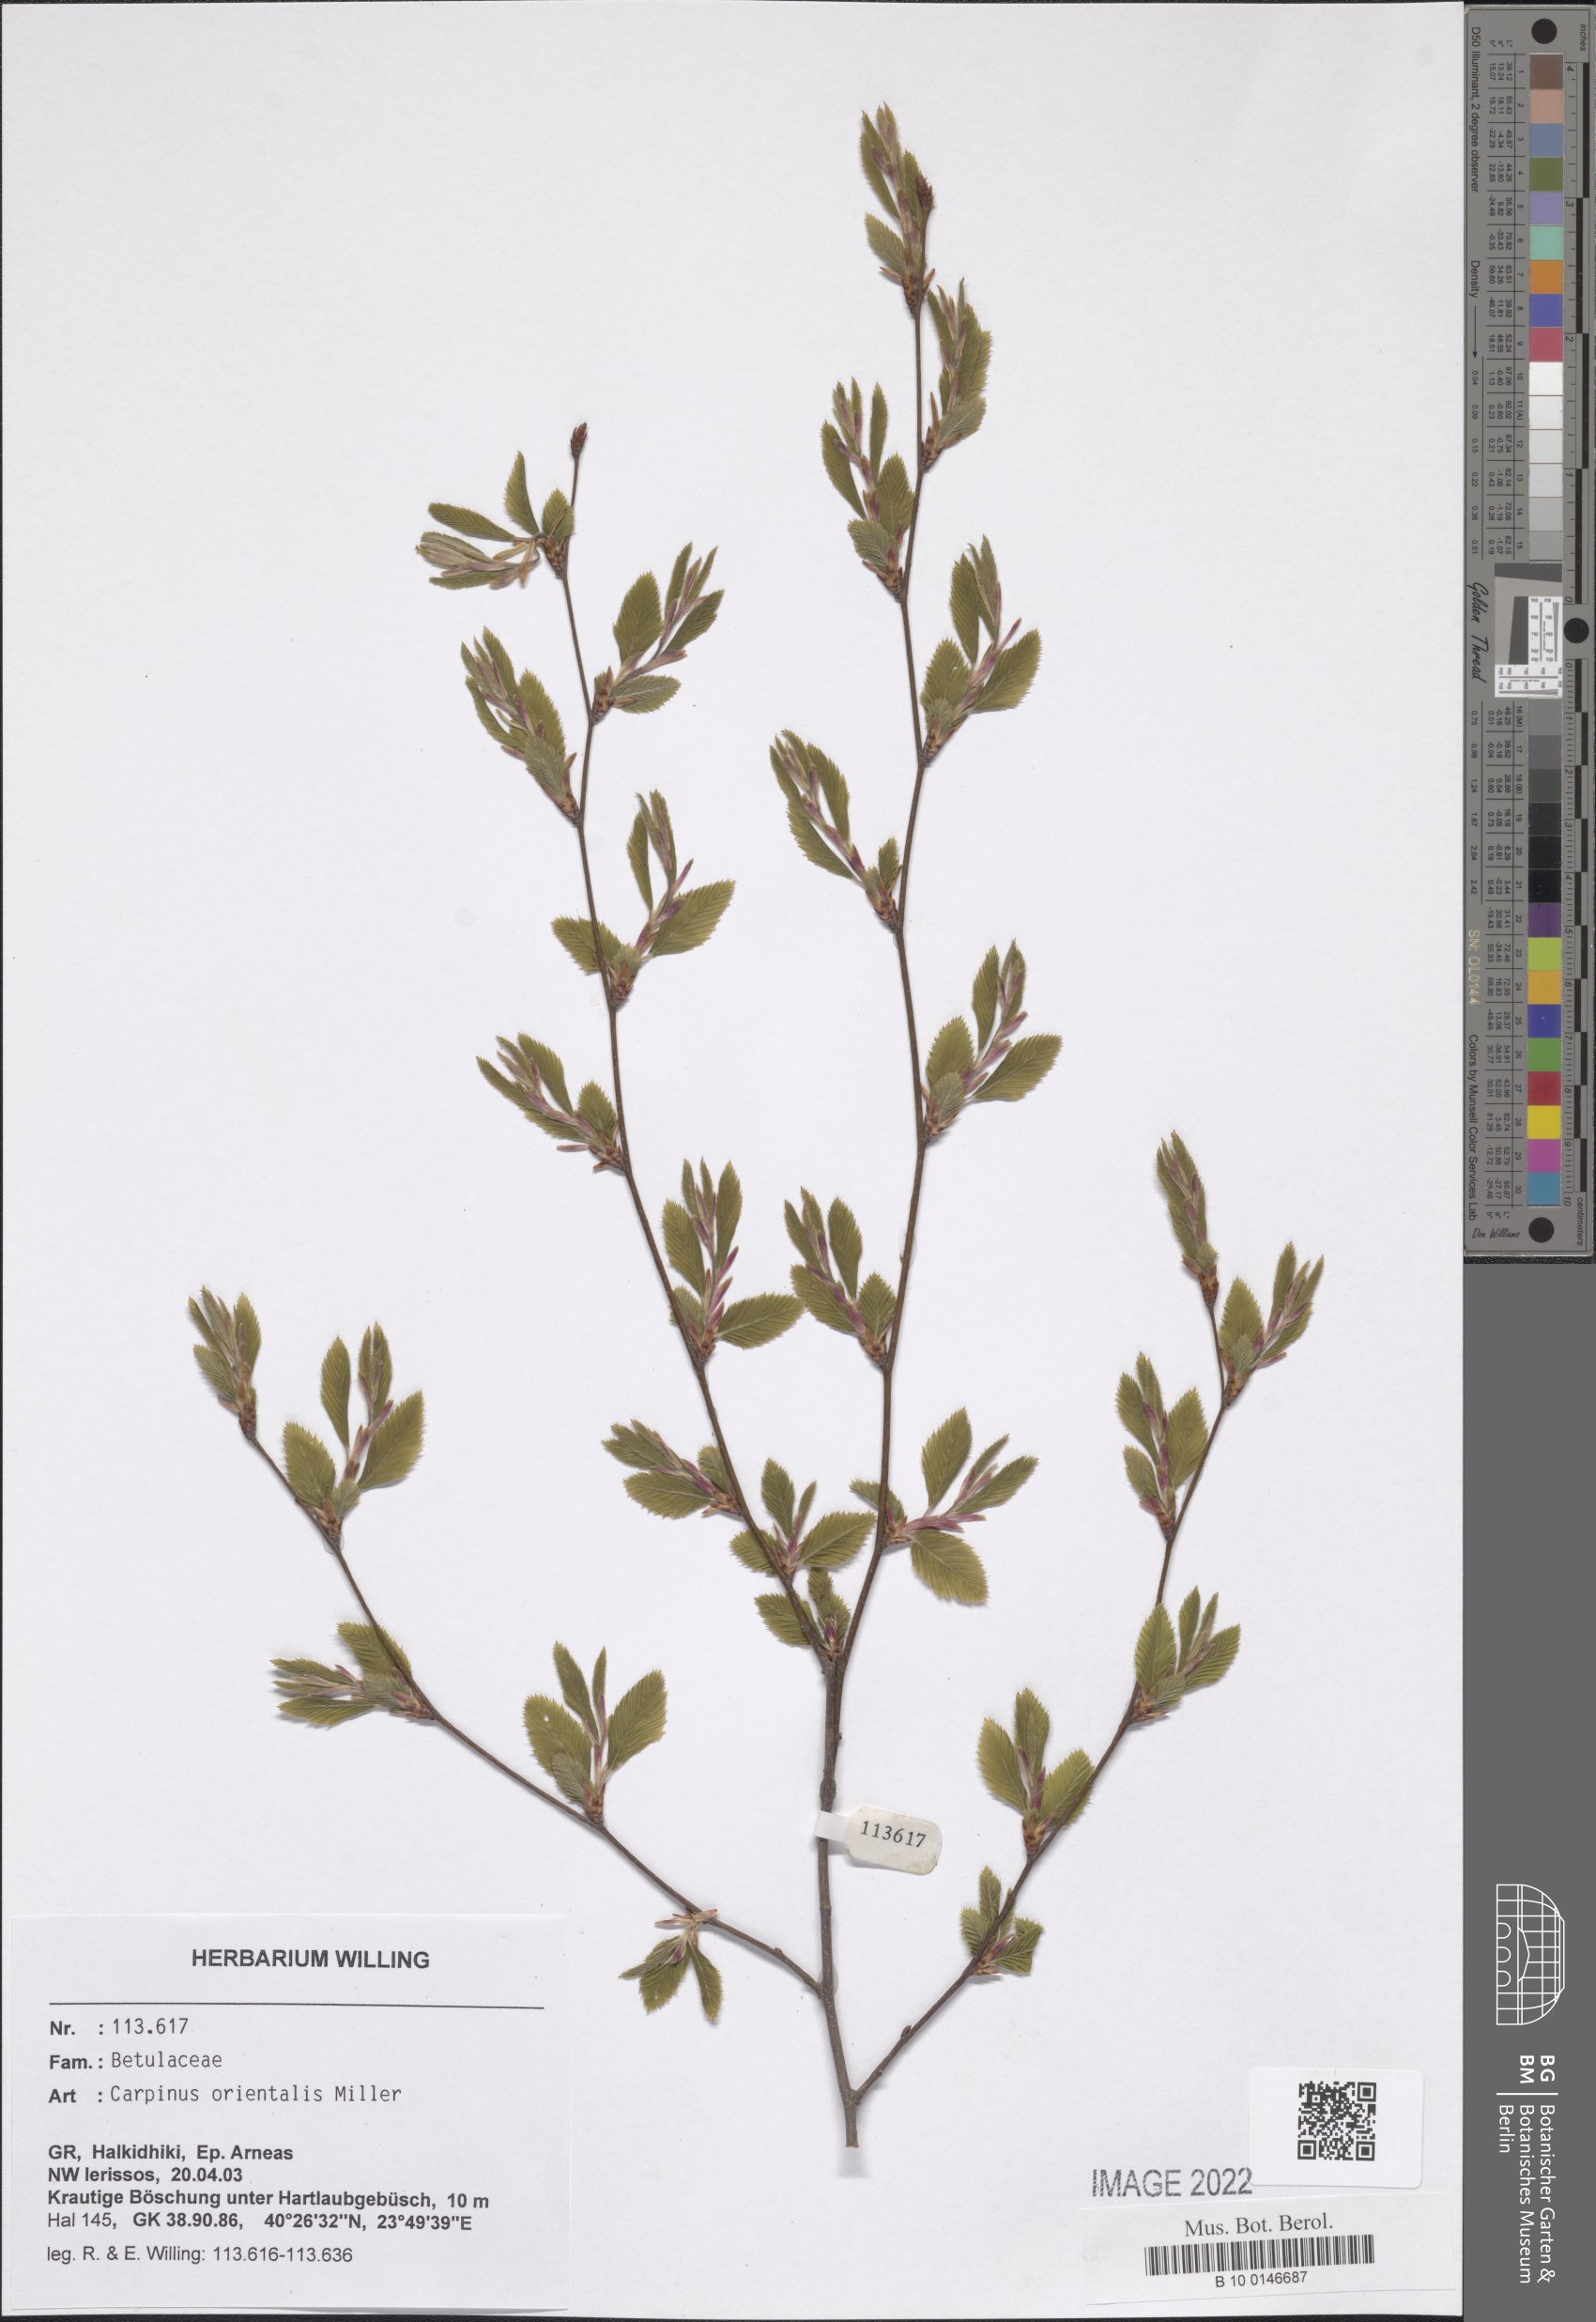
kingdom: Plantae
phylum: Tracheophyta
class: Magnoliopsida
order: Fagales
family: Betulaceae
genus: Carpinus
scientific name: Carpinus orientalis
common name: Eastern hornbeam
